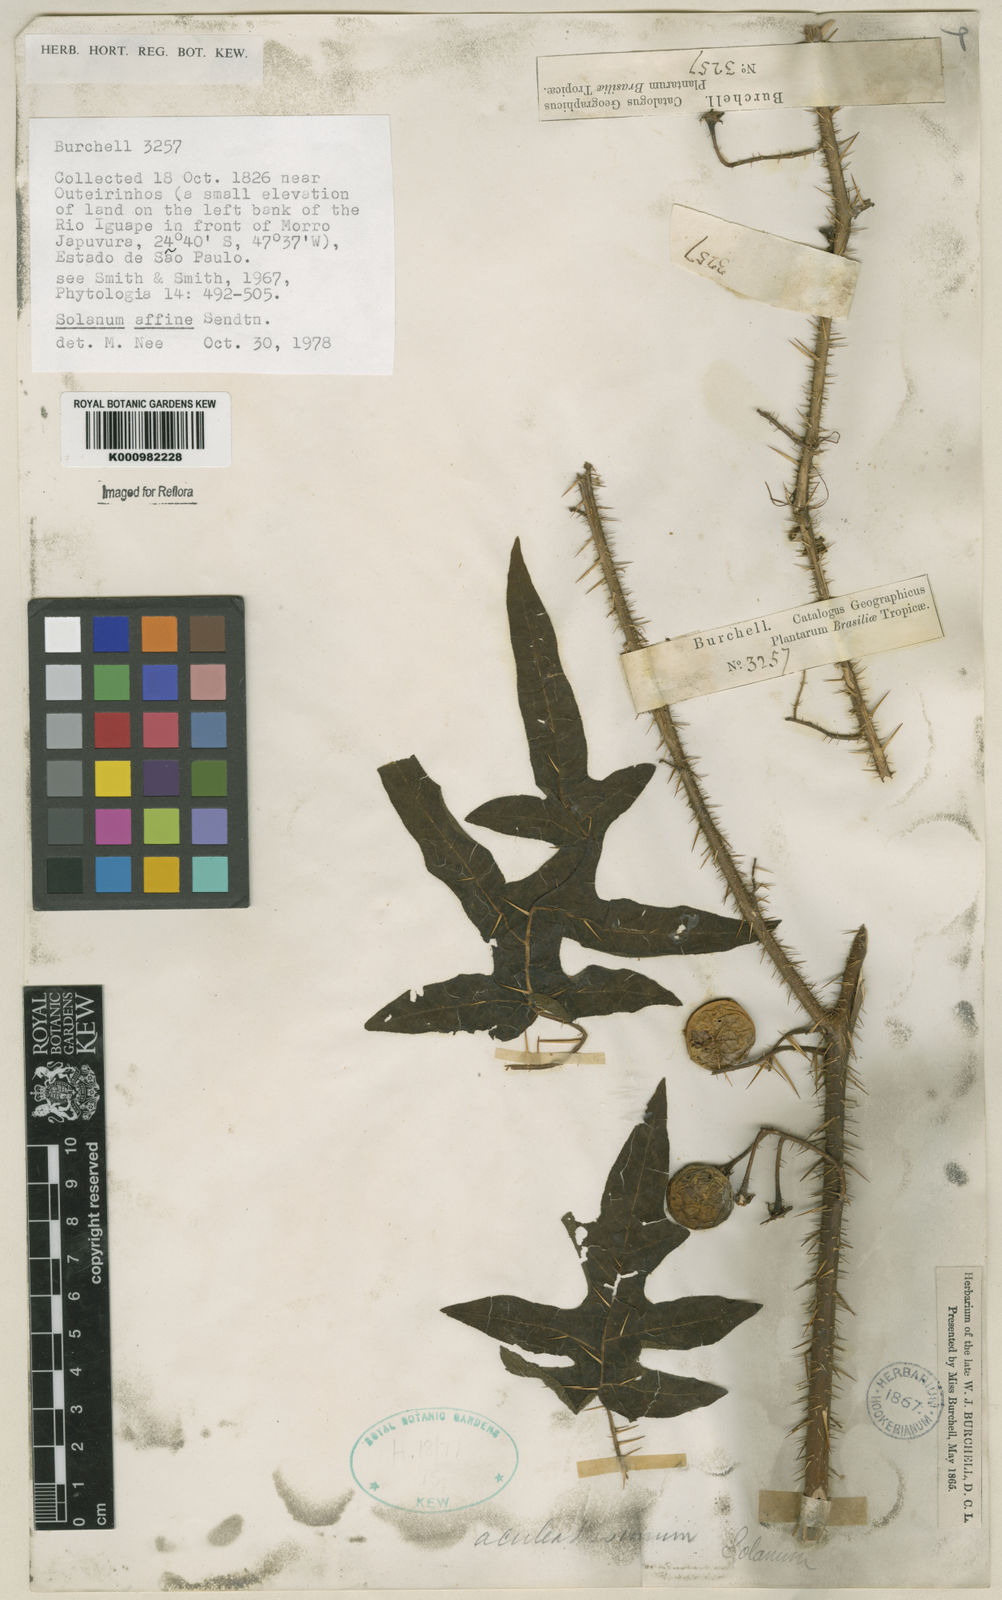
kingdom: Plantae
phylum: Tracheophyta
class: Magnoliopsida
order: Solanales
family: Solanaceae
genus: Solanum
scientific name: Solanum affine
